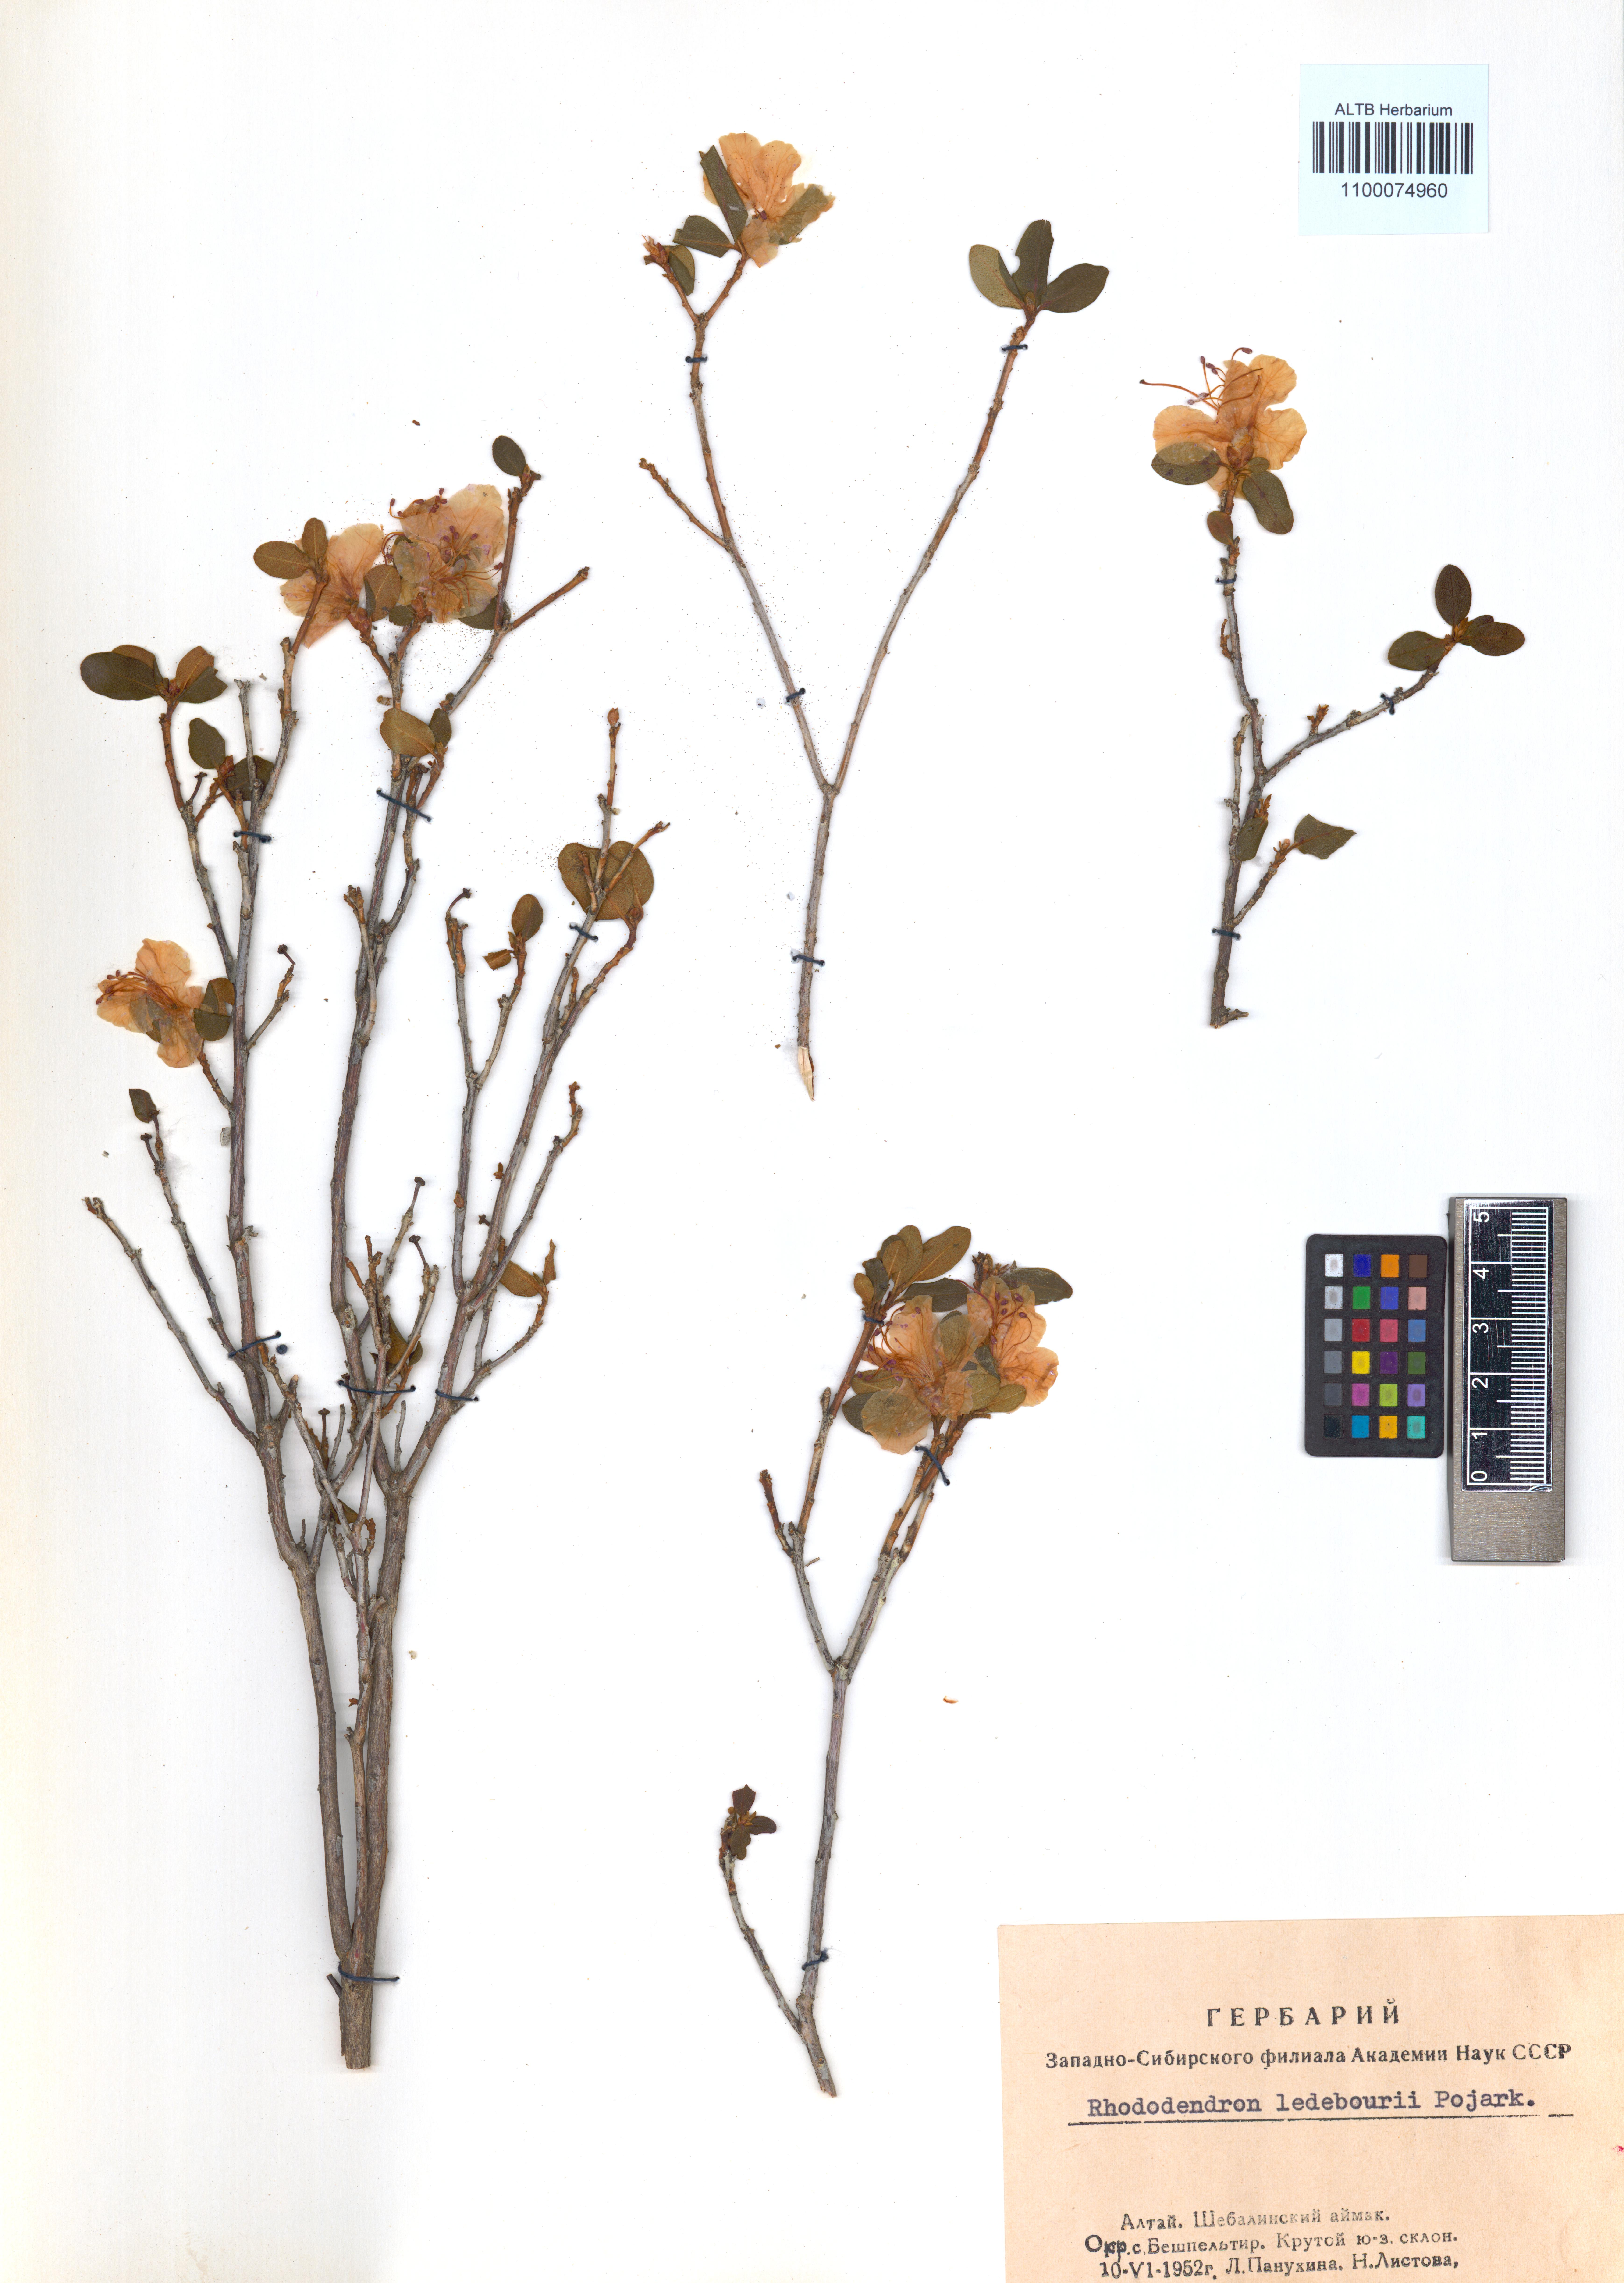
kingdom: Plantae
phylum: Tracheophyta
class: Magnoliopsida
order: Ericales
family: Ericaceae
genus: Rhododendron
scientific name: Rhododendron dauricum
